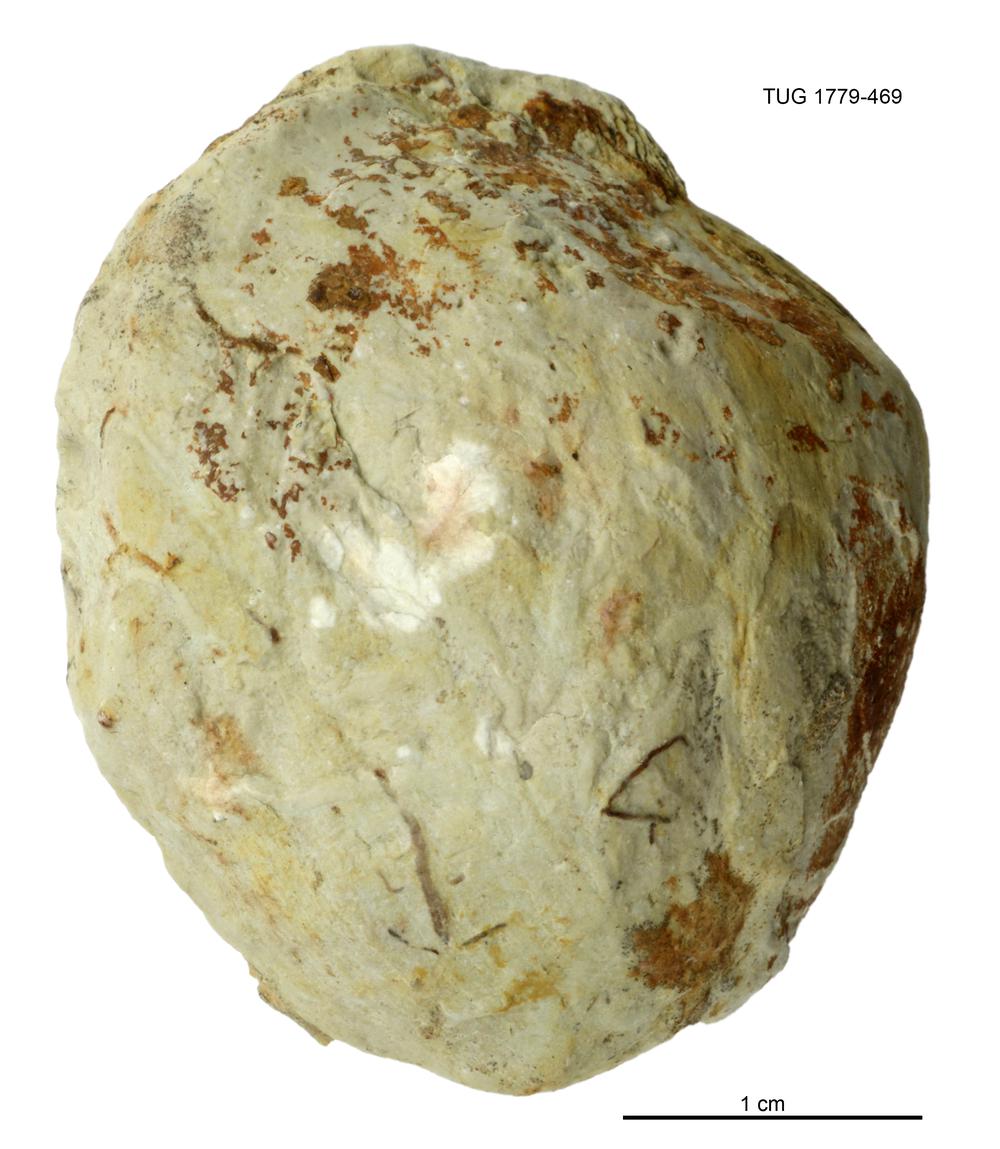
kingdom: Animalia
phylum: Mollusca
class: Bivalvia
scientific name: Bivalvia
